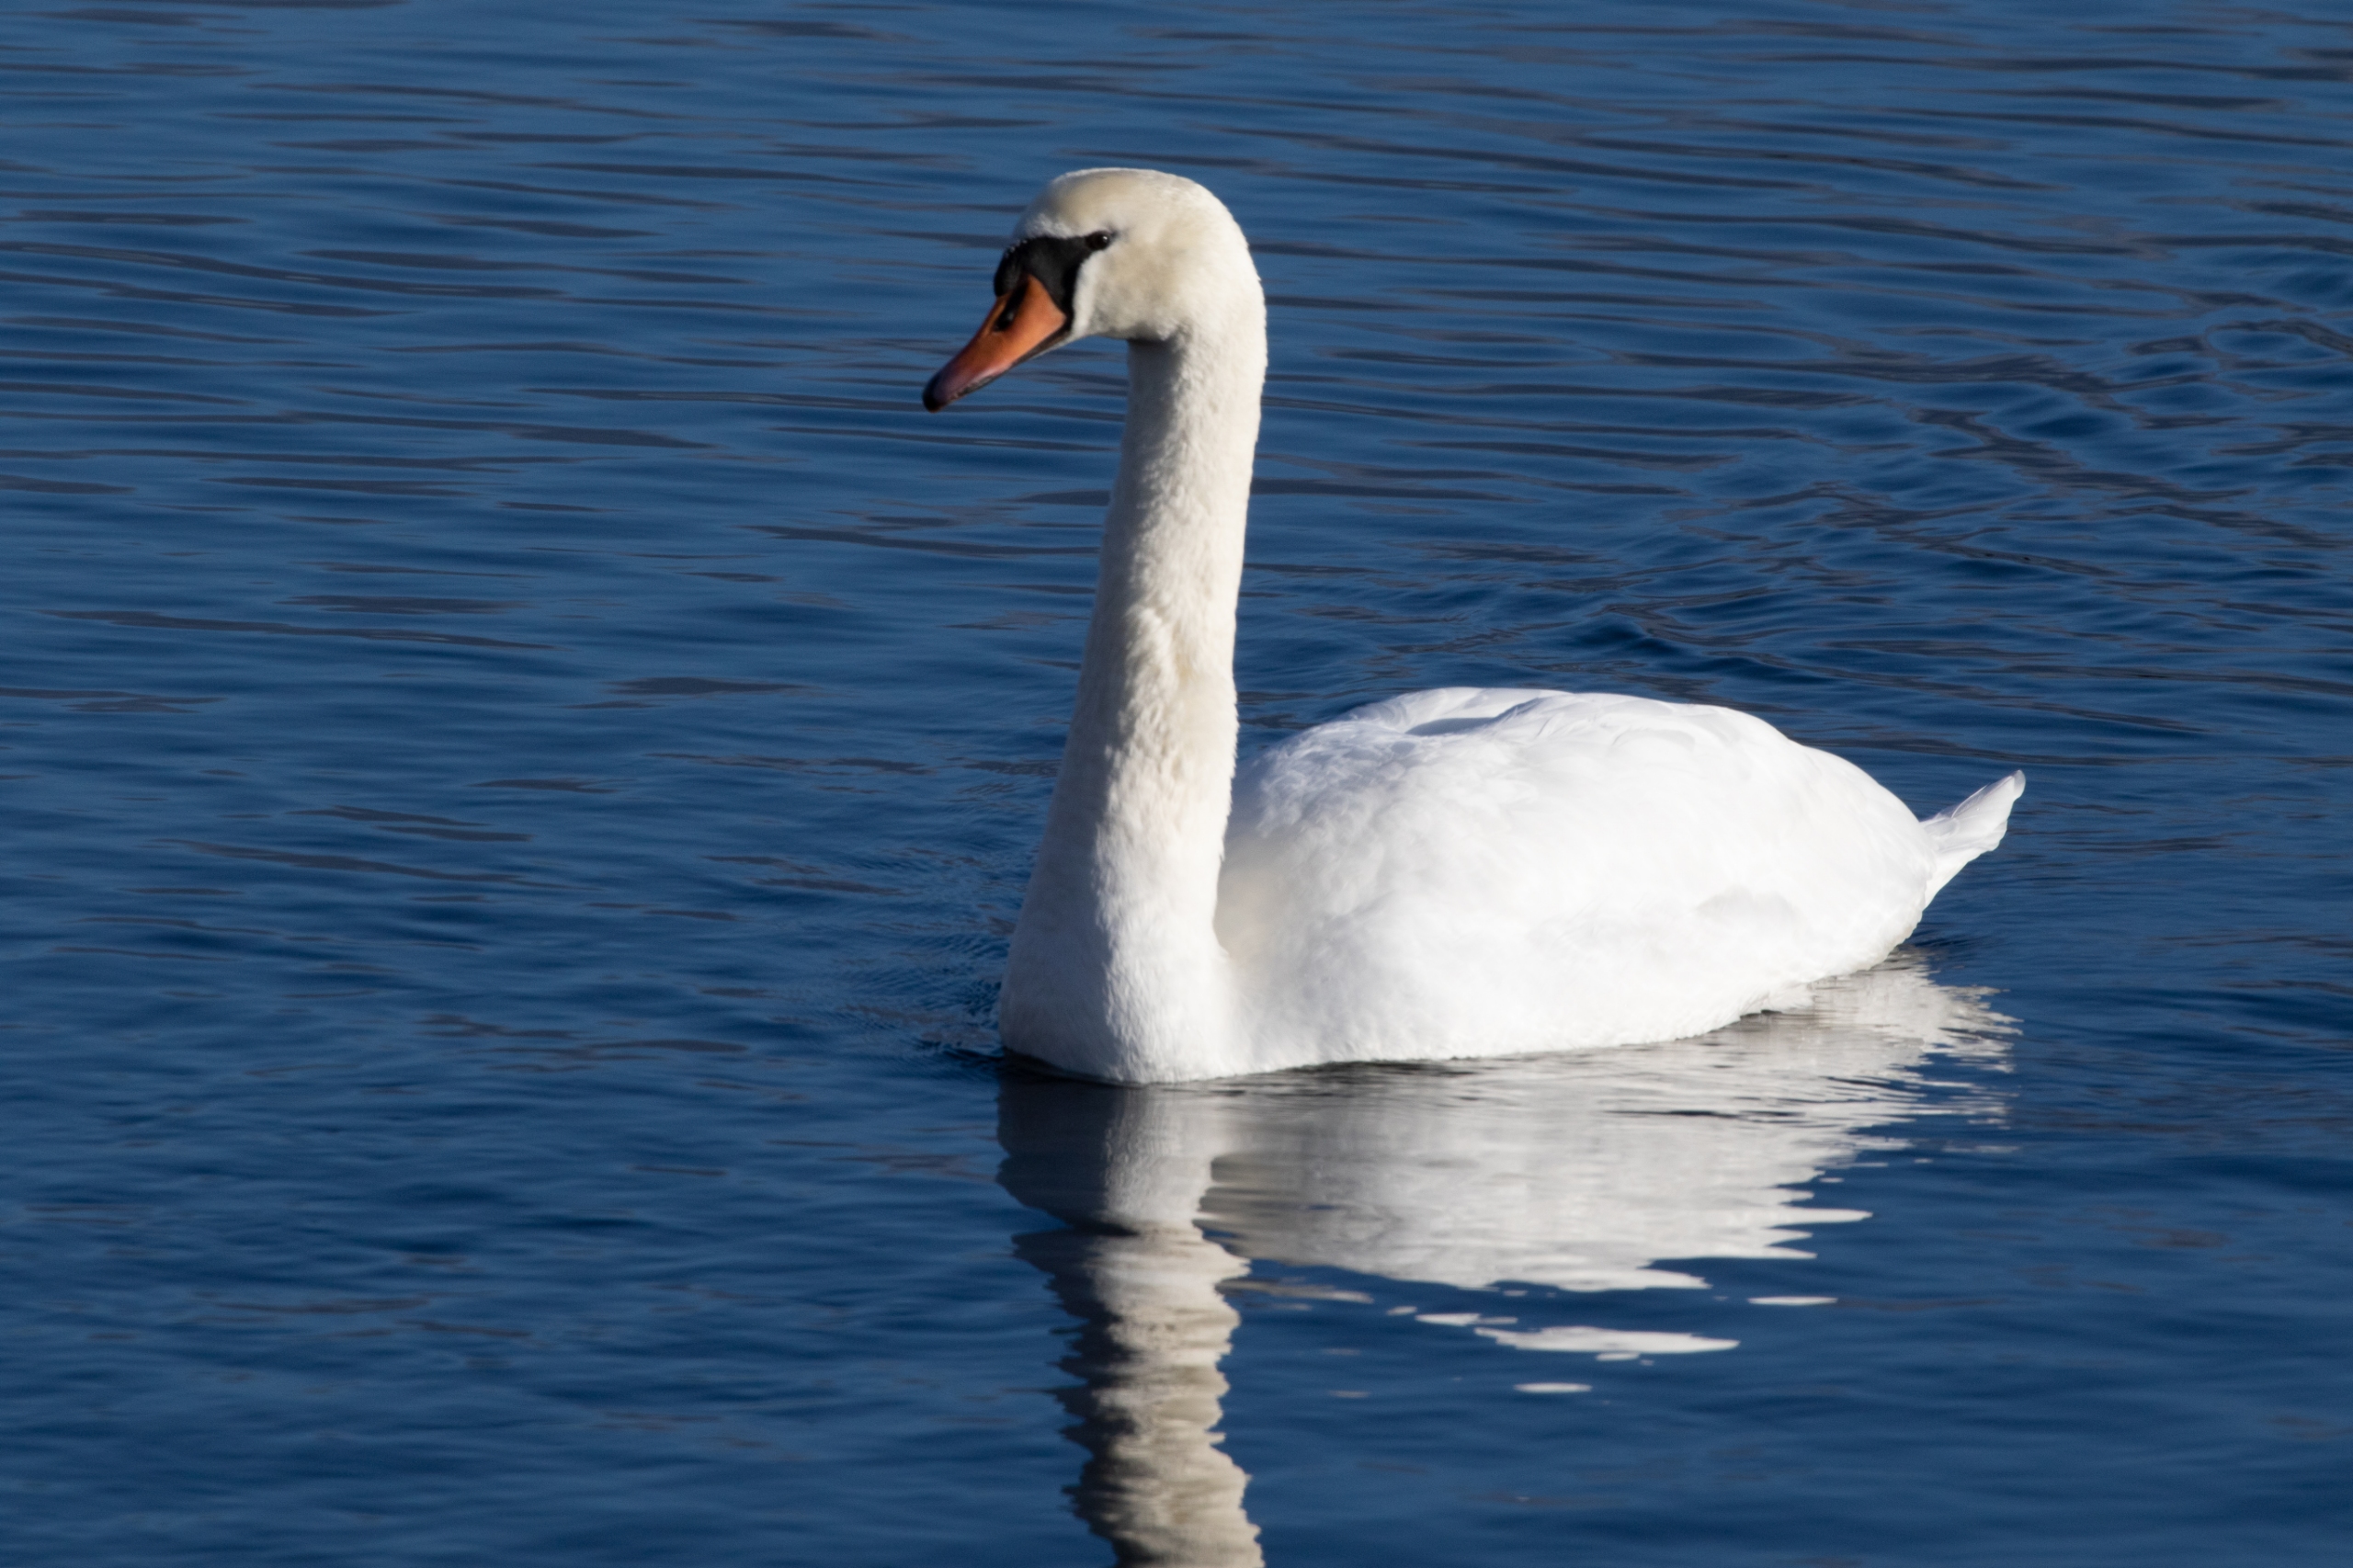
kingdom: Animalia
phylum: Chordata
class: Aves
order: Anseriformes
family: Anatidae
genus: Cygnus
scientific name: Cygnus olor
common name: Knopsvane
